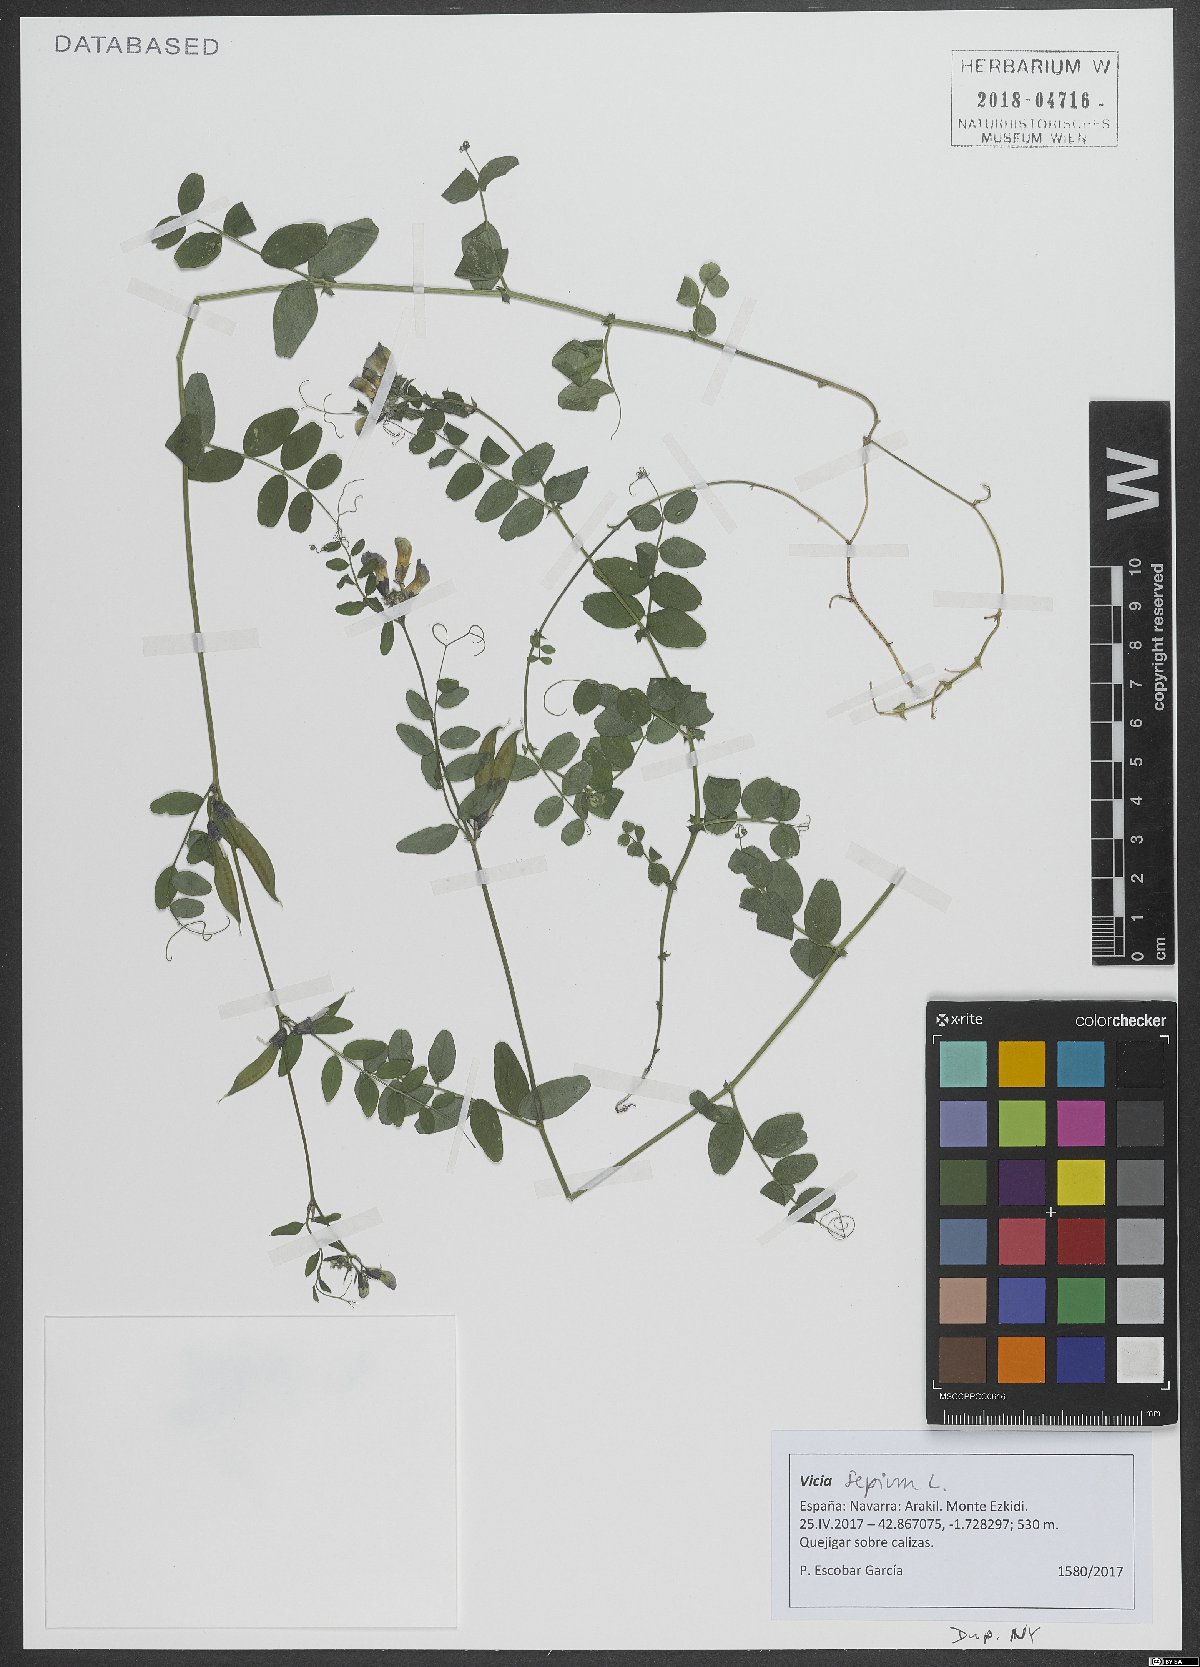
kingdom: Plantae
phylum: Tracheophyta
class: Magnoliopsida
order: Fabales
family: Fabaceae
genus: Vicia
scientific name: Vicia sepium
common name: Bush vetch
